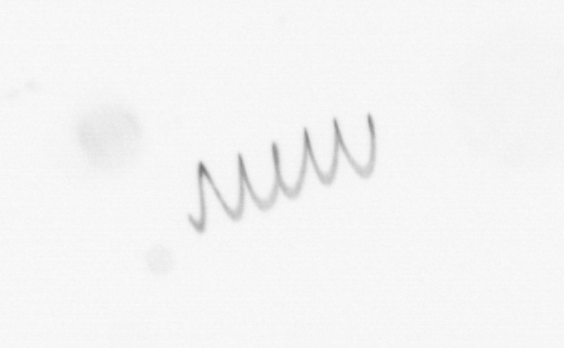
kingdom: Chromista
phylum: Ochrophyta
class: Bacillariophyceae
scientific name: Bacillariophyceae
